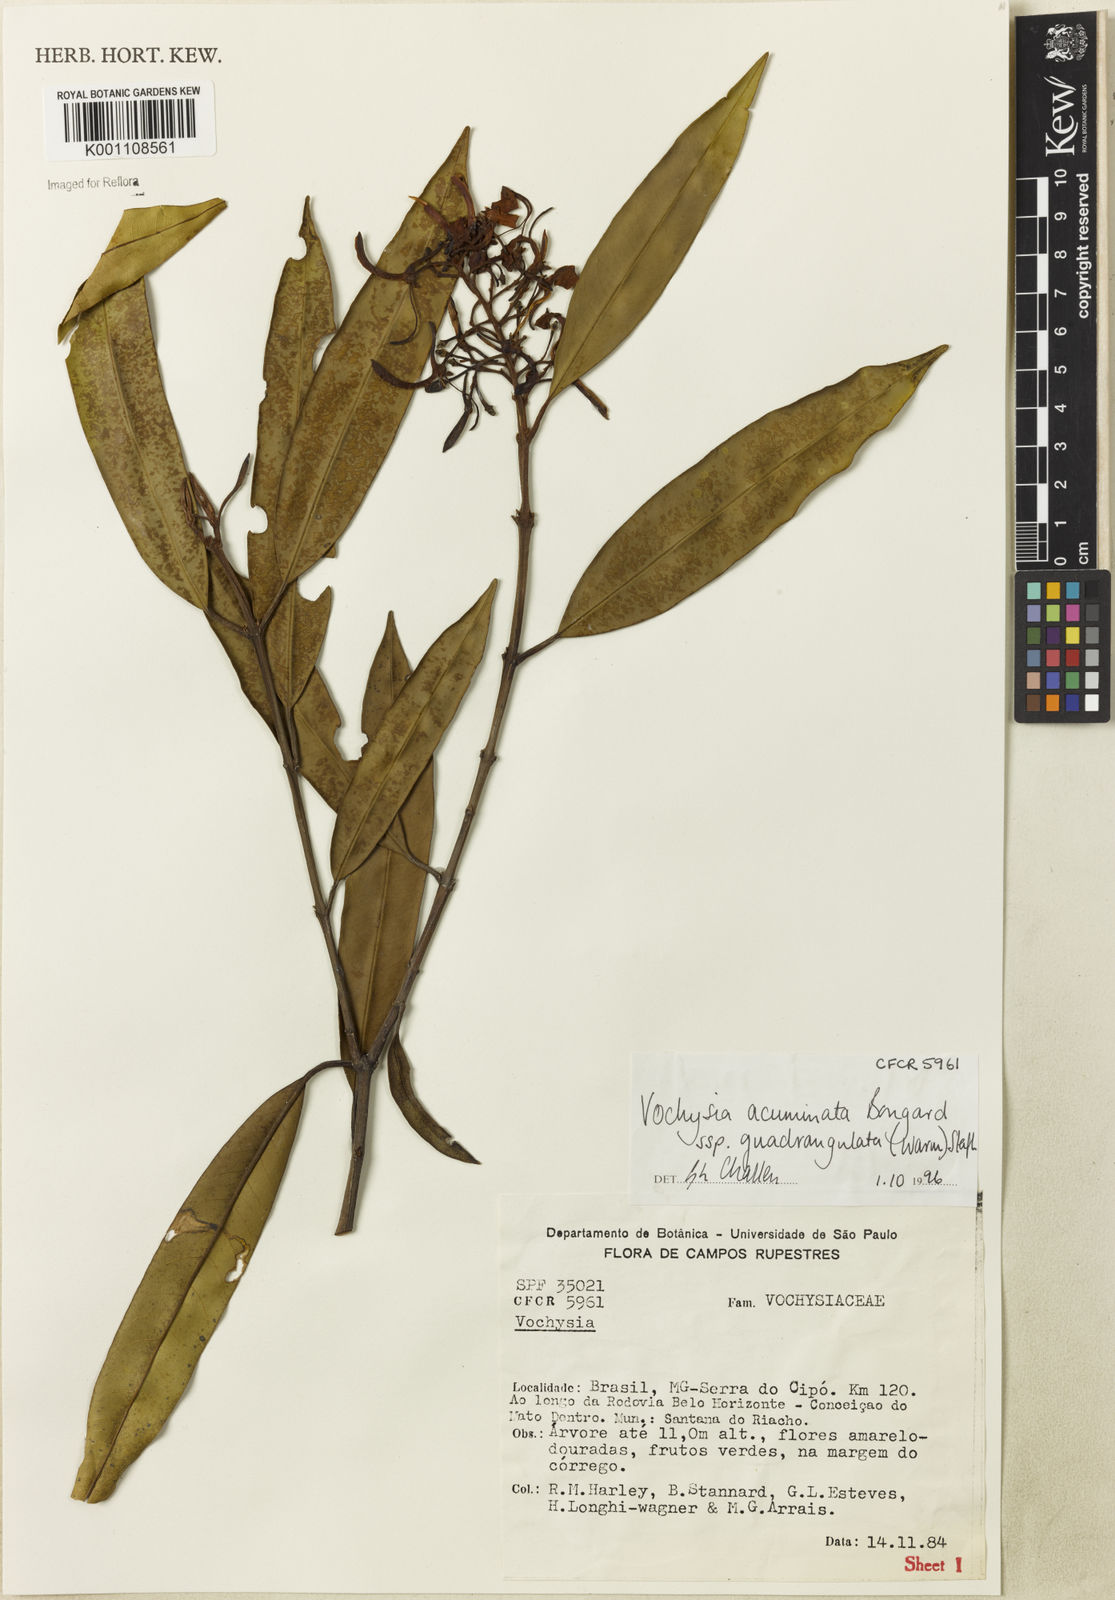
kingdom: Plantae
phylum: Tracheophyta
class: Magnoliopsida
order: Myrtales
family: Vochysiaceae
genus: Vochysia
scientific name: Vochysia acuminata
